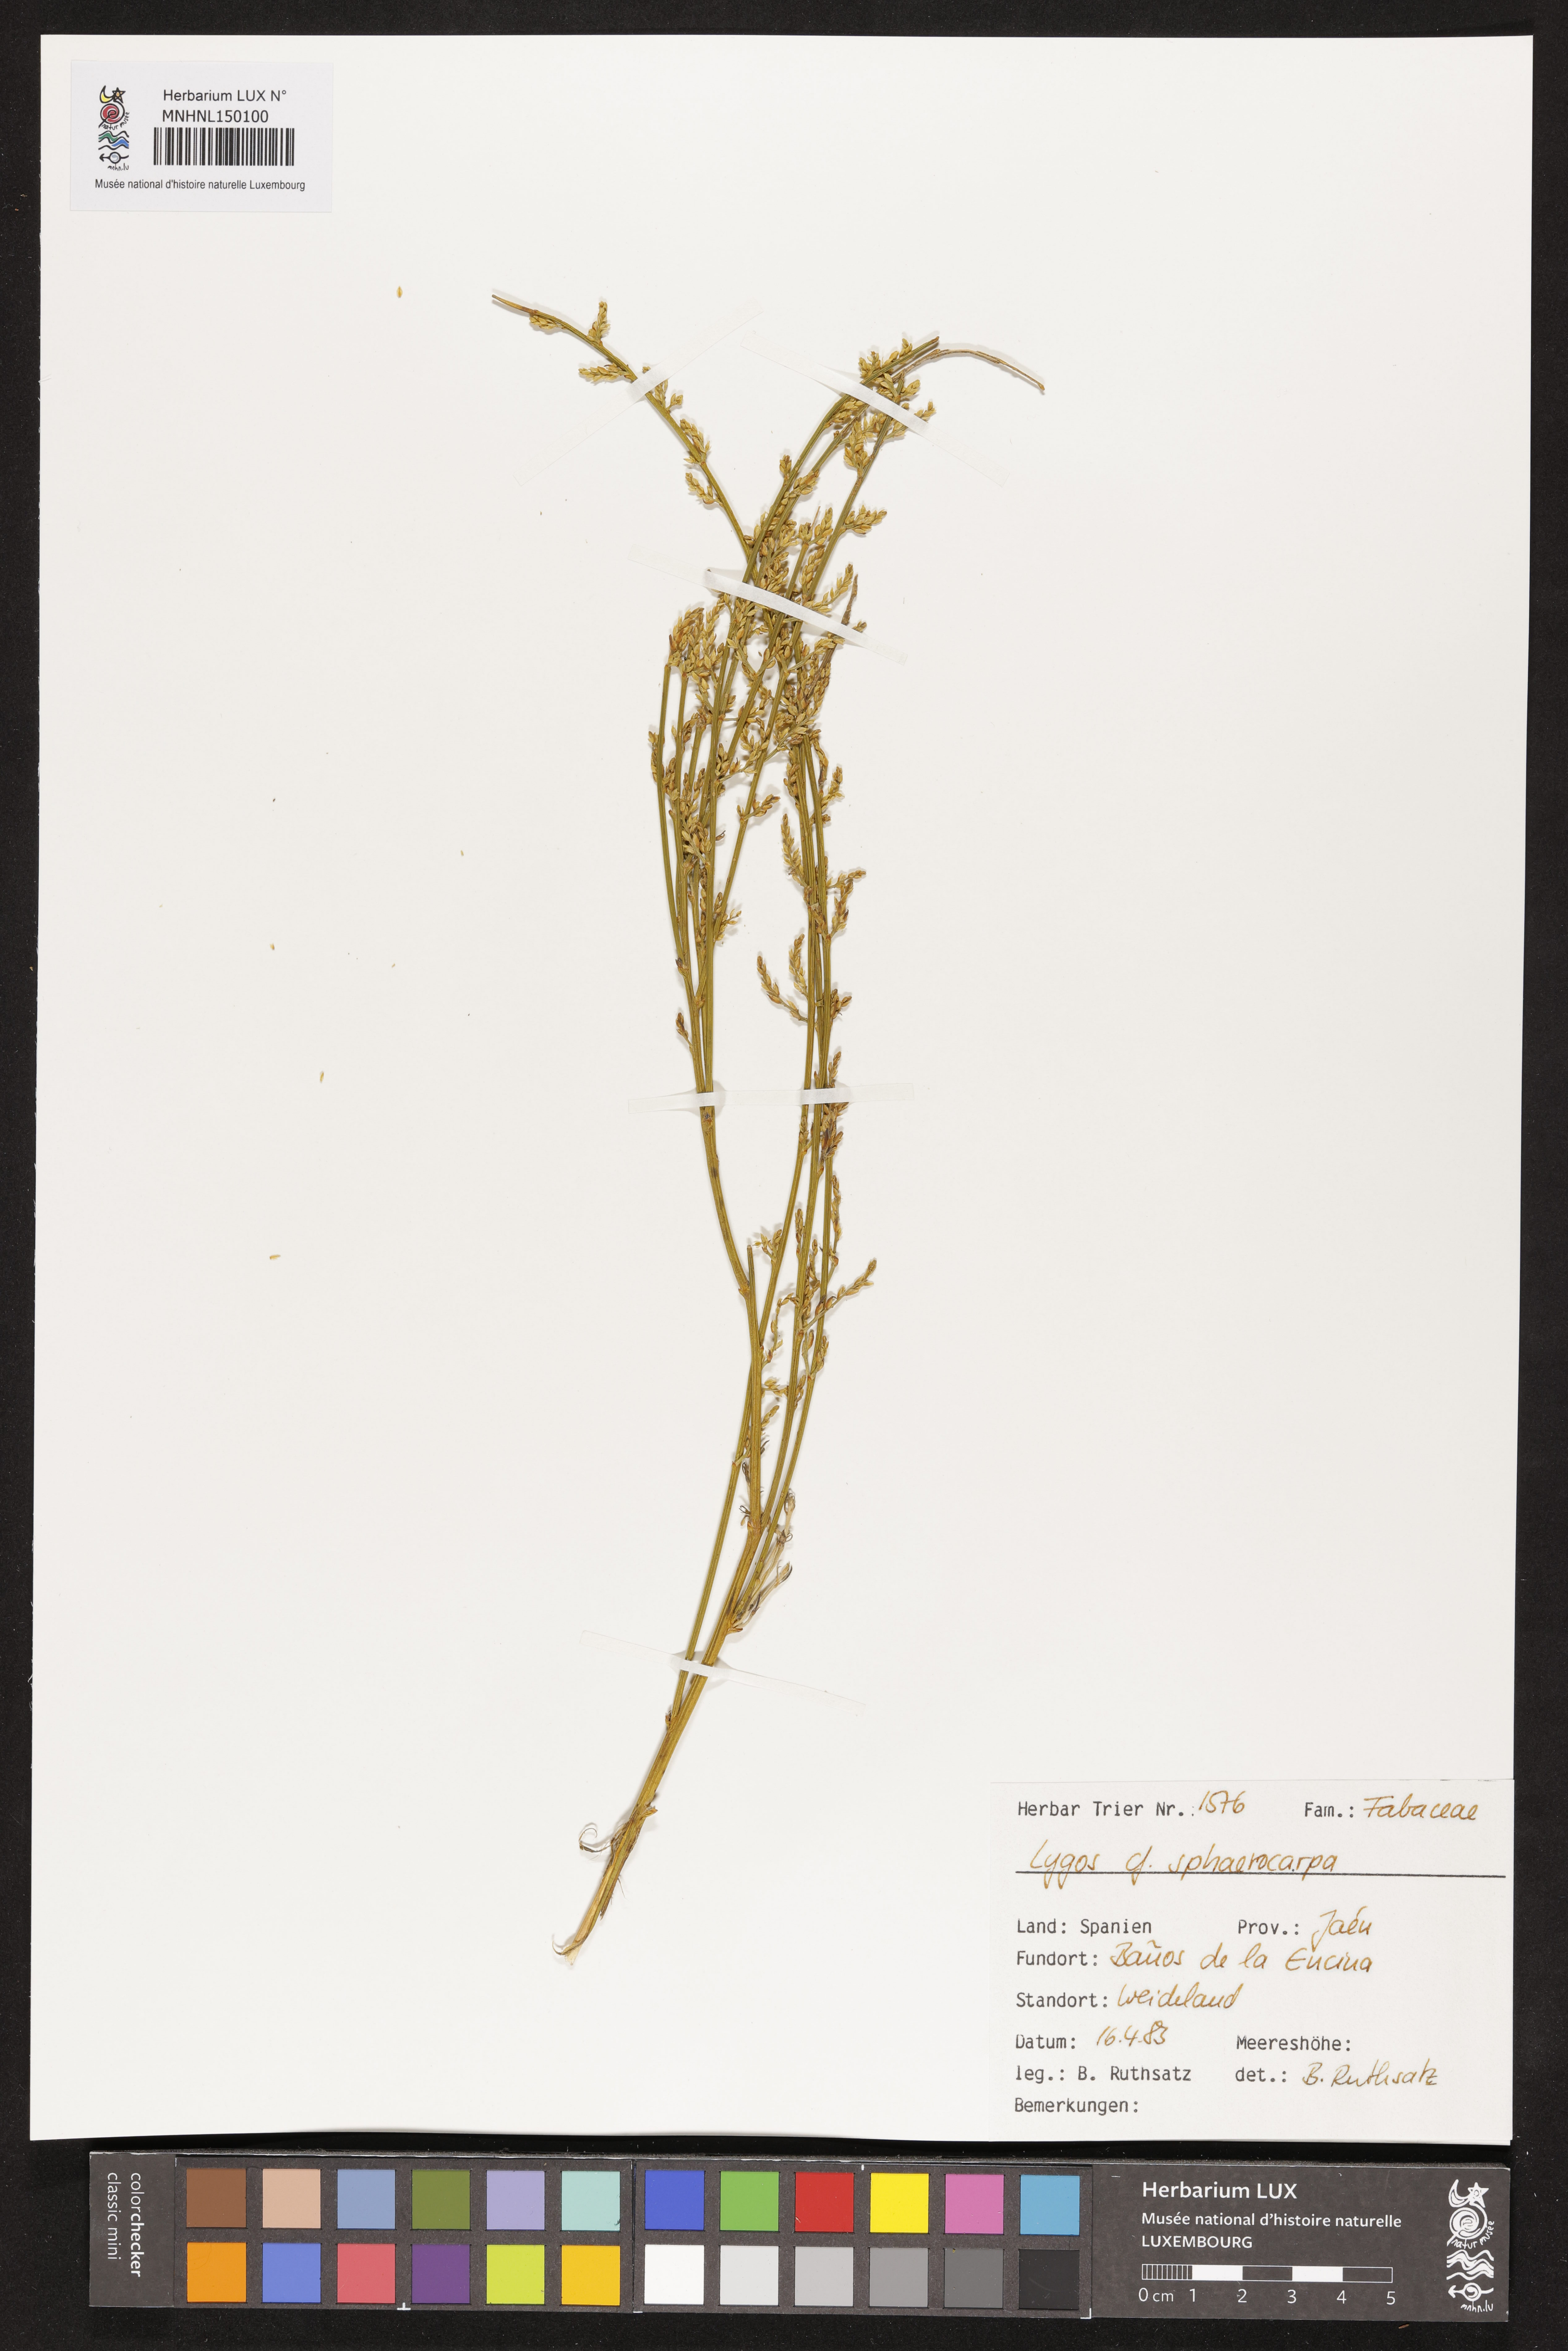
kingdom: Plantae
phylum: Tracheophyta
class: Magnoliopsida
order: Fabales
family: Fabaceae
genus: Retama
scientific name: Retama sphaerocarpa
